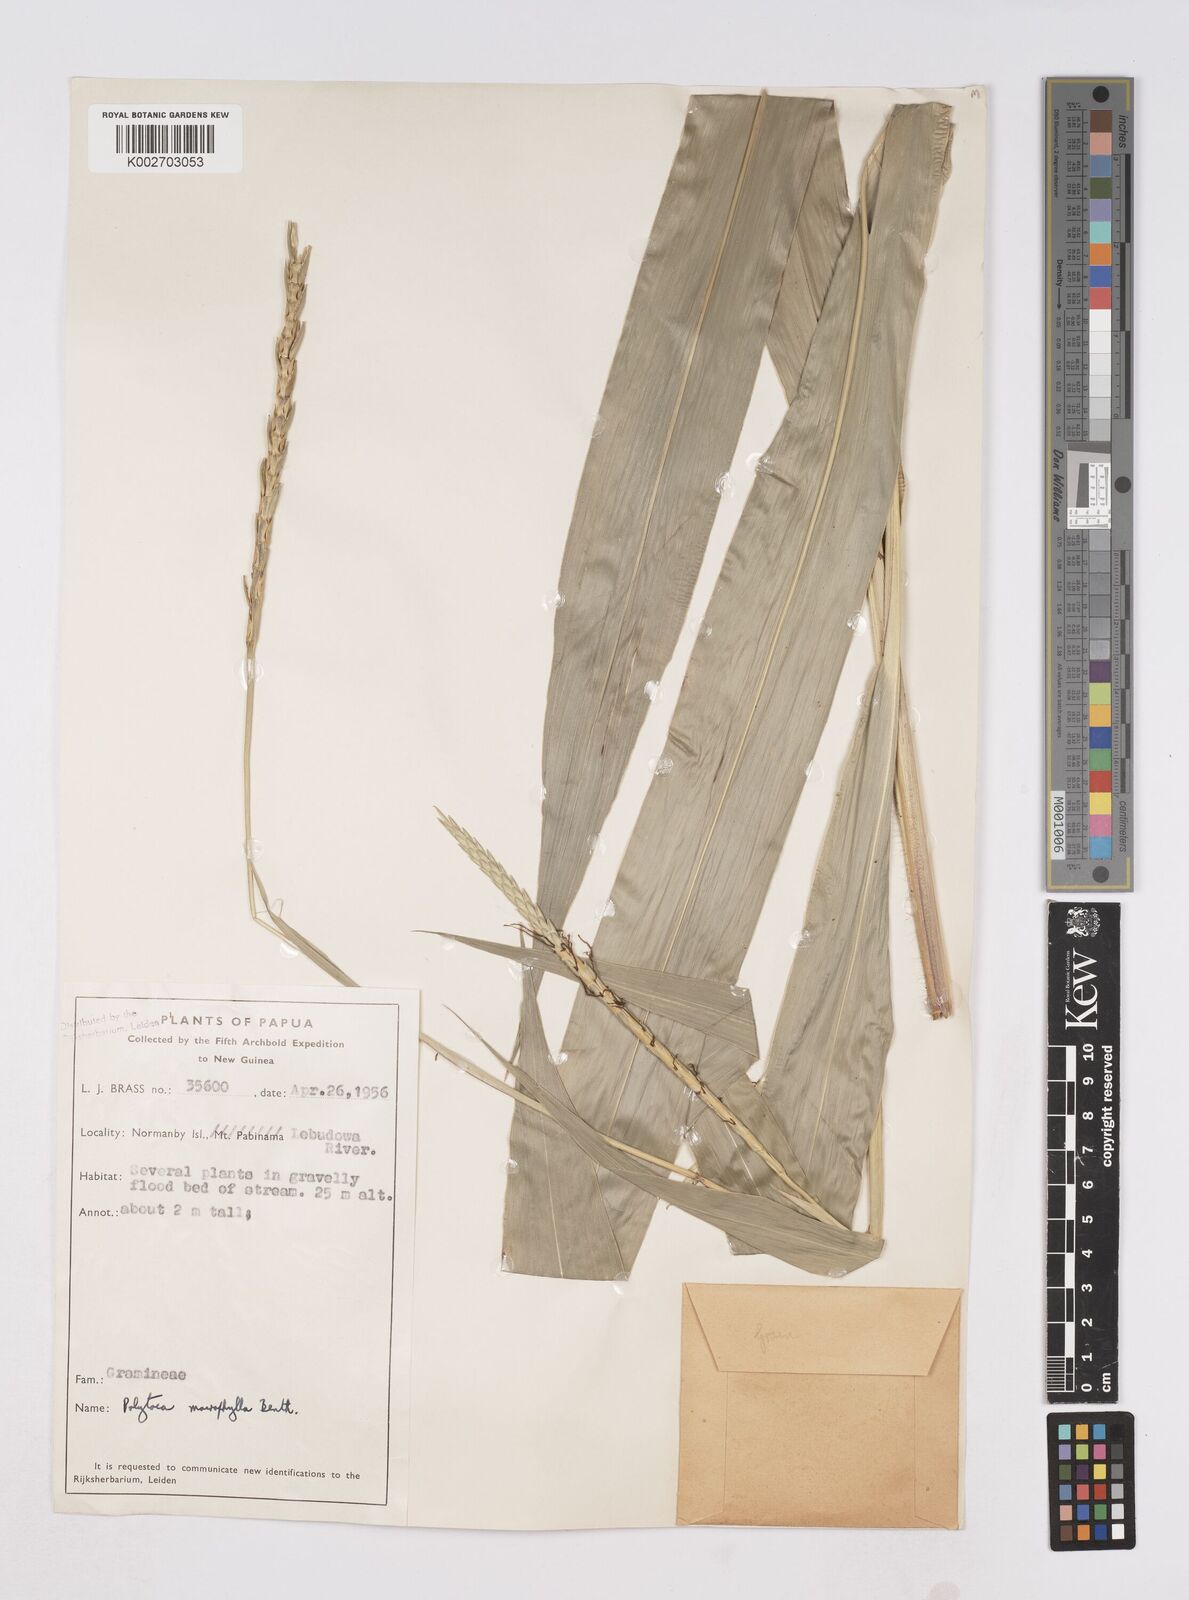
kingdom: Plantae
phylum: Tracheophyta
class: Liliopsida
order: Poales
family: Poaceae
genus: Polytoca
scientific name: Polytoca macrophylla
